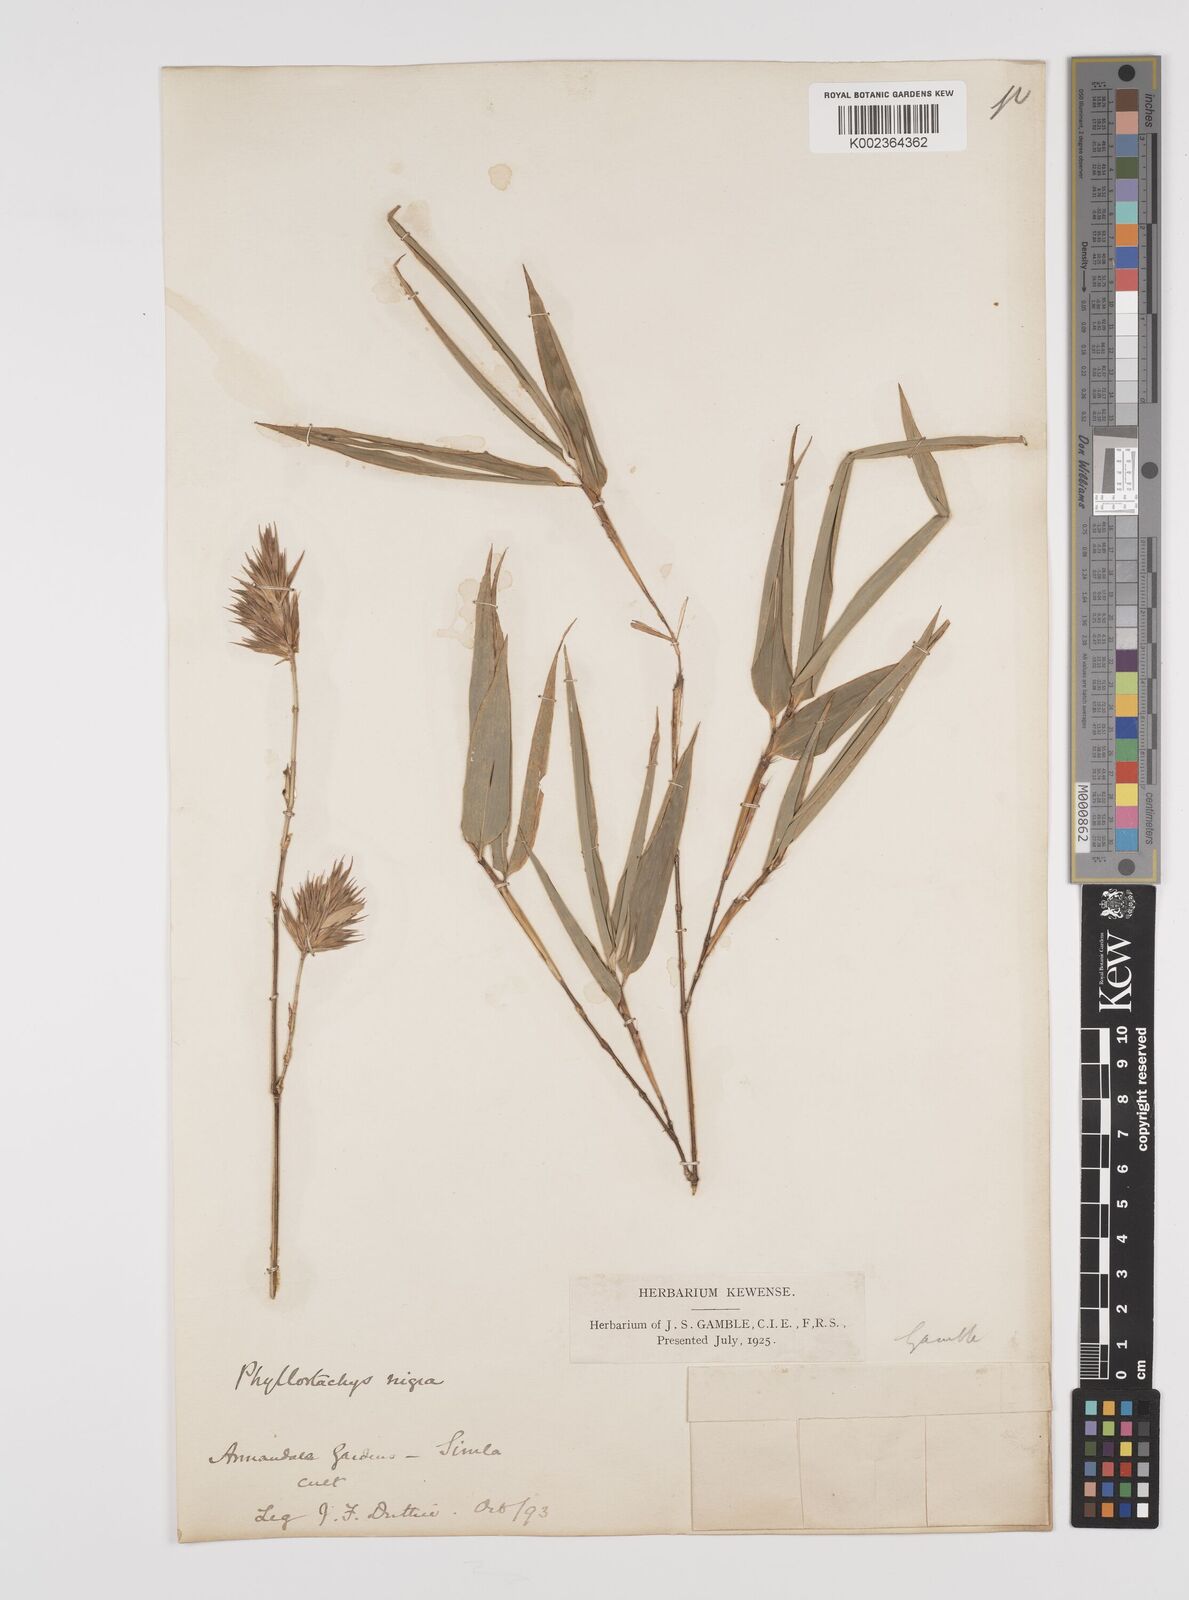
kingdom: Plantae
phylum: Tracheophyta
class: Liliopsida
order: Poales
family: Poaceae
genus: Phyllostachys
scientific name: Phyllostachys nigra
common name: Black bamboo
